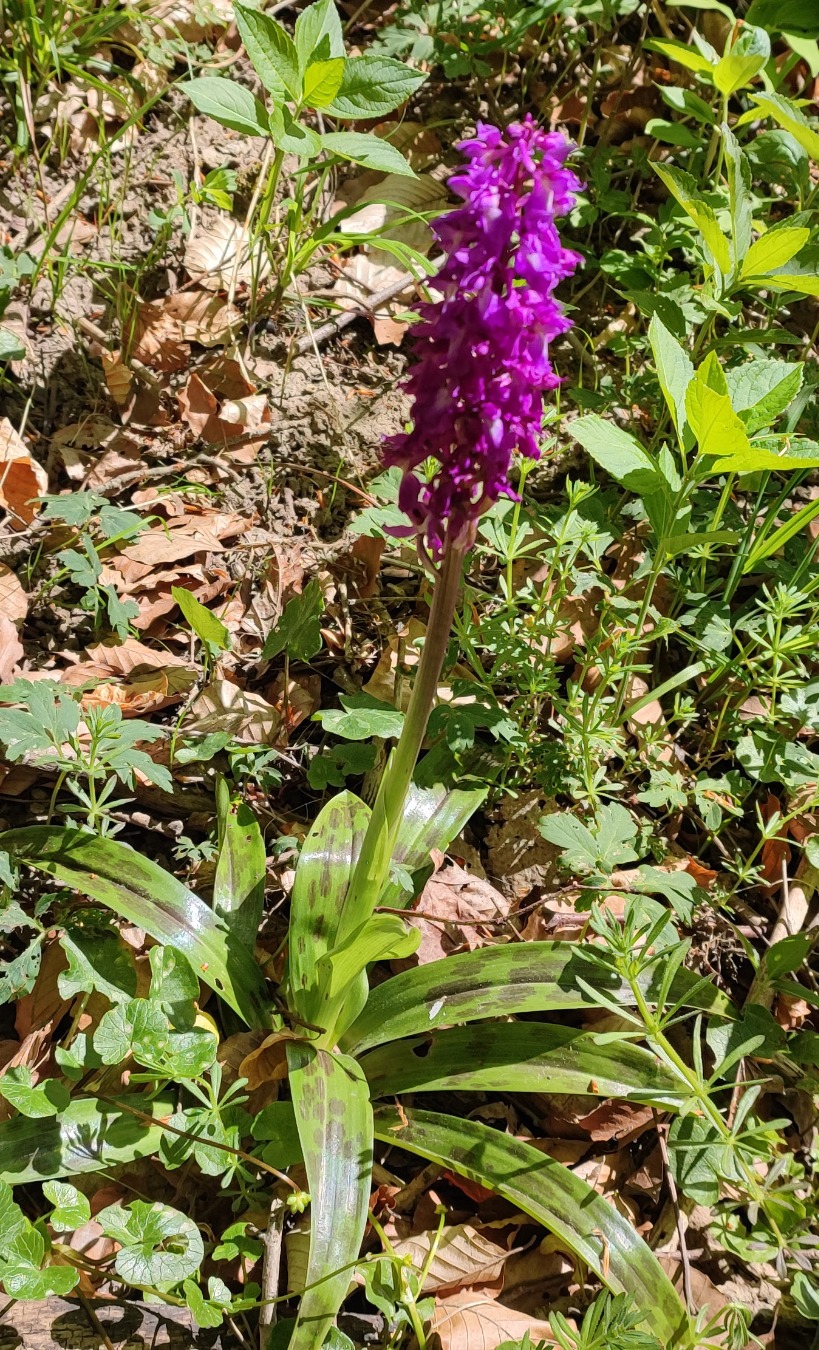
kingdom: Plantae
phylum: Tracheophyta
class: Liliopsida
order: Asparagales
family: Orchidaceae
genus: Orchis
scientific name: Orchis mascula
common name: Tyndakset gøgeurt
